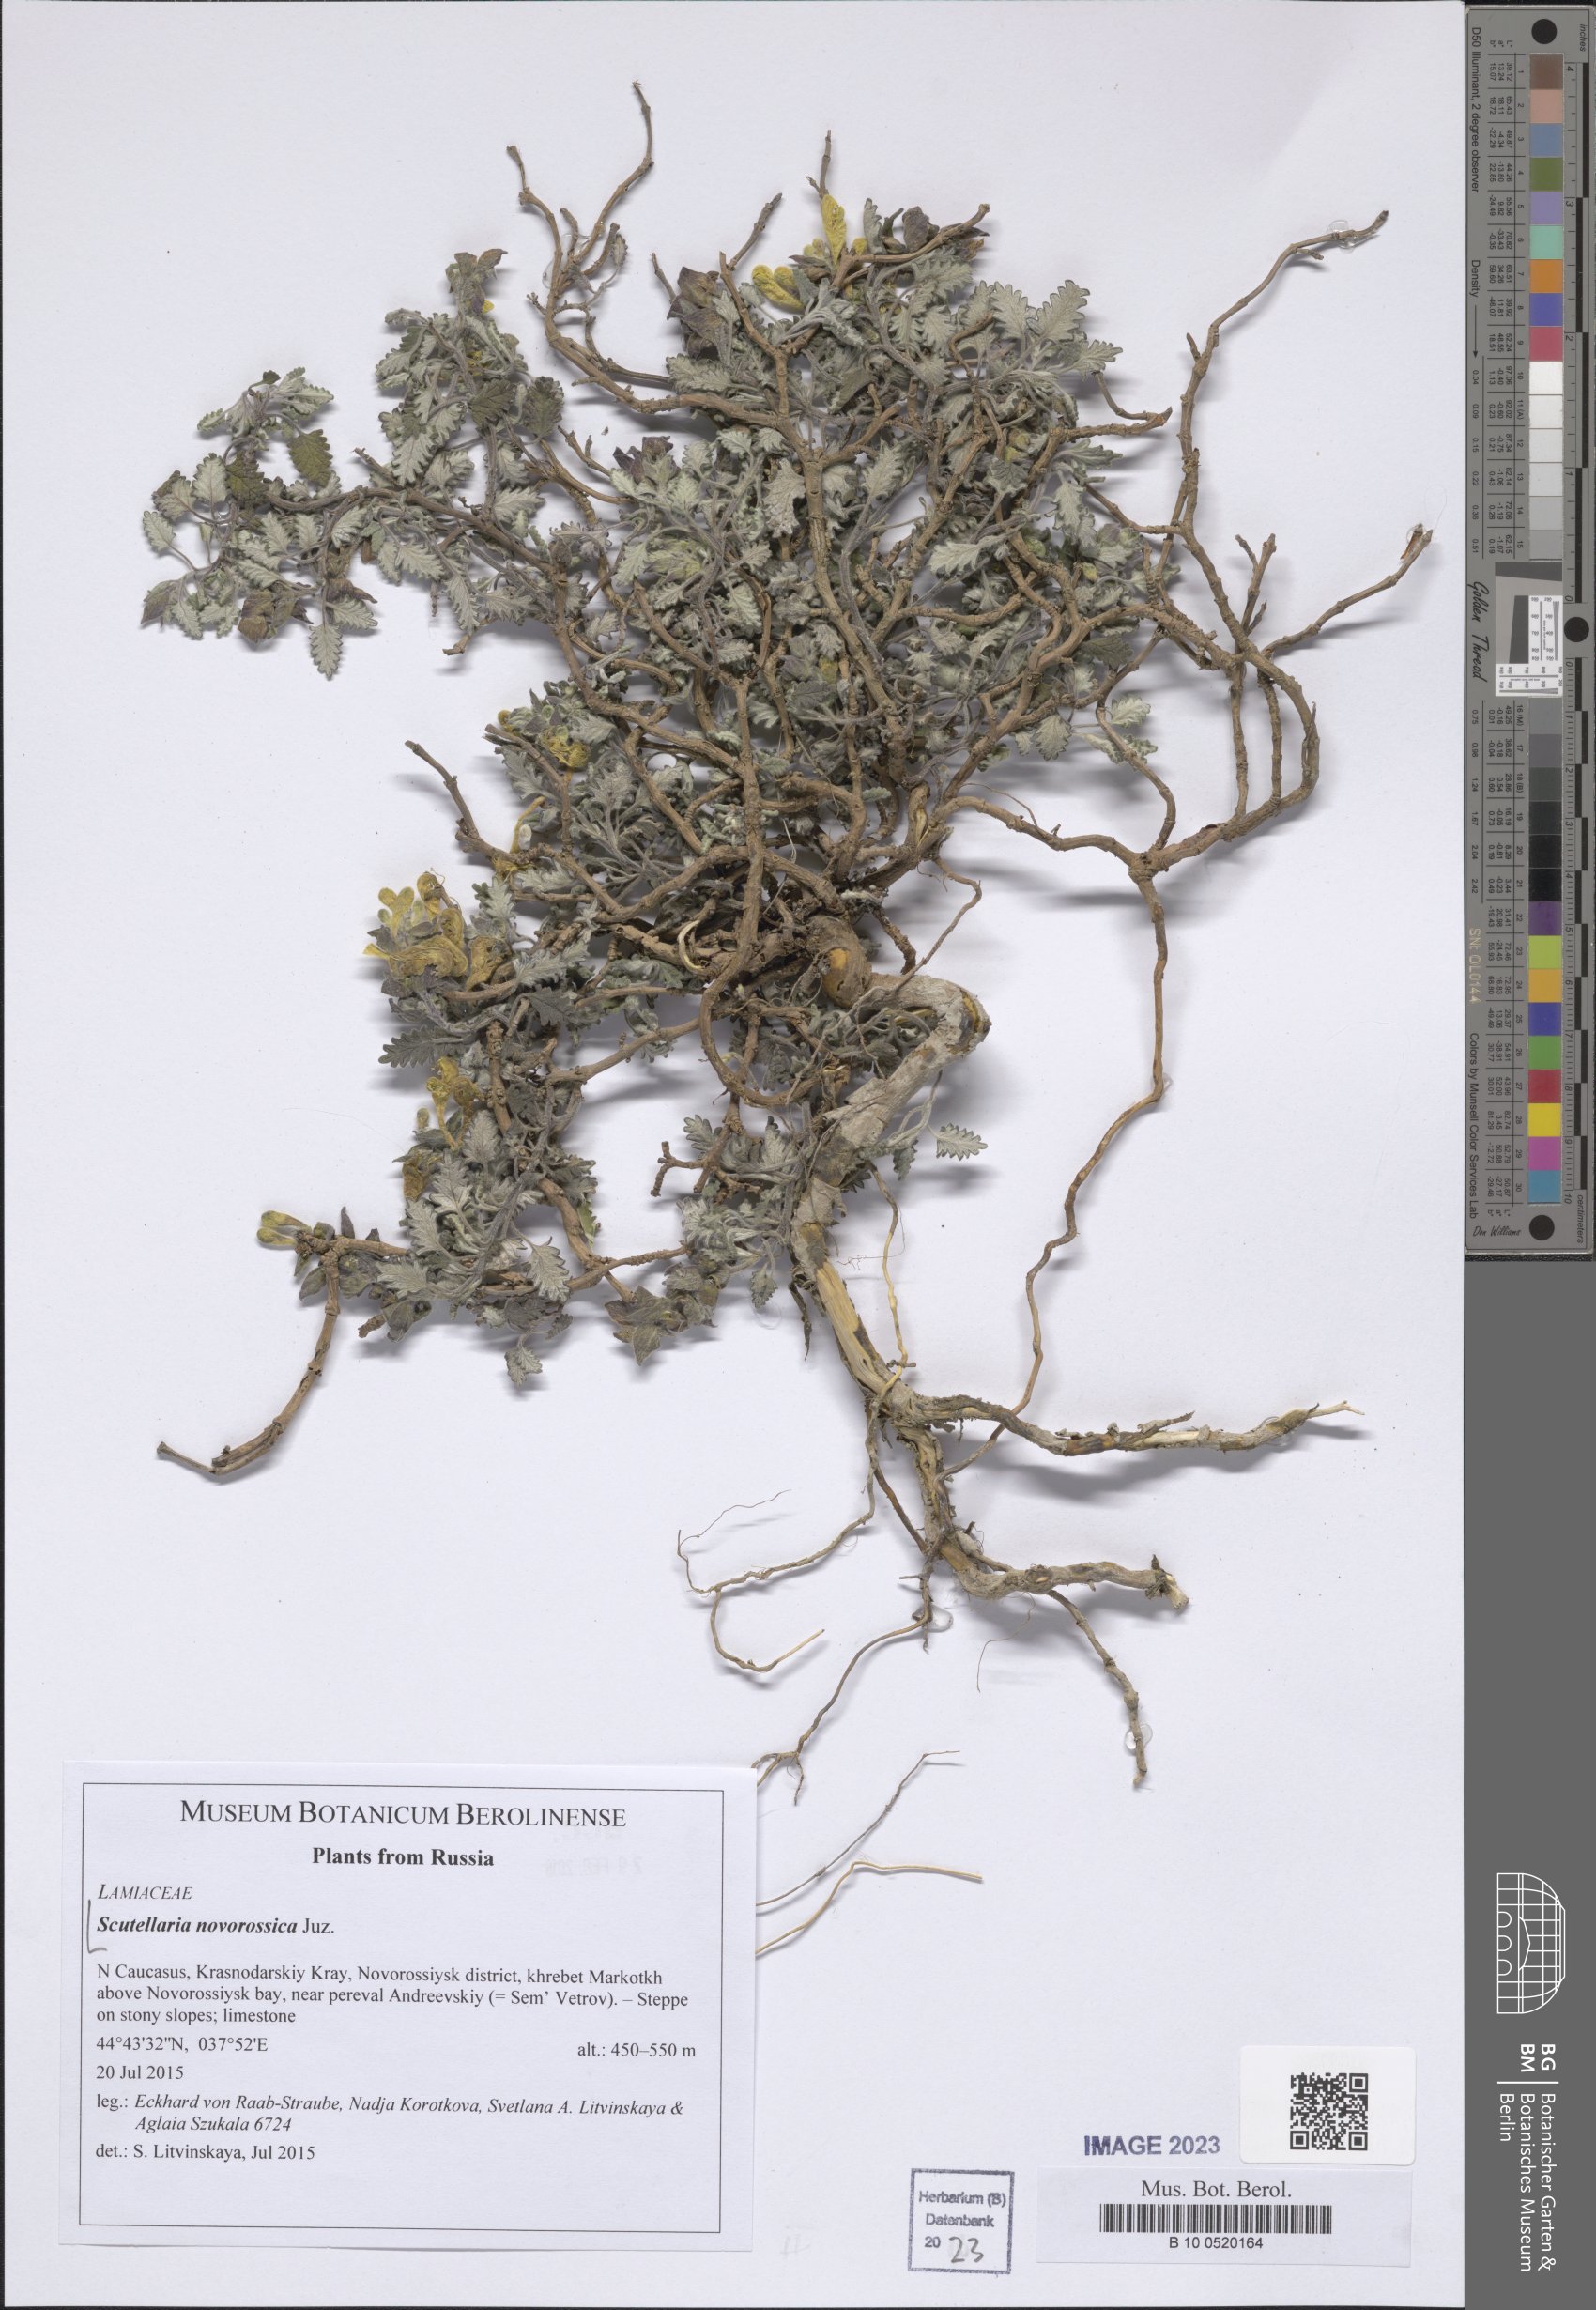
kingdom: Plantae
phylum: Tracheophyta
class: Magnoliopsida
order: Lamiales
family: Lamiaceae
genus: Scutellaria
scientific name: Scutellaria novorossica
